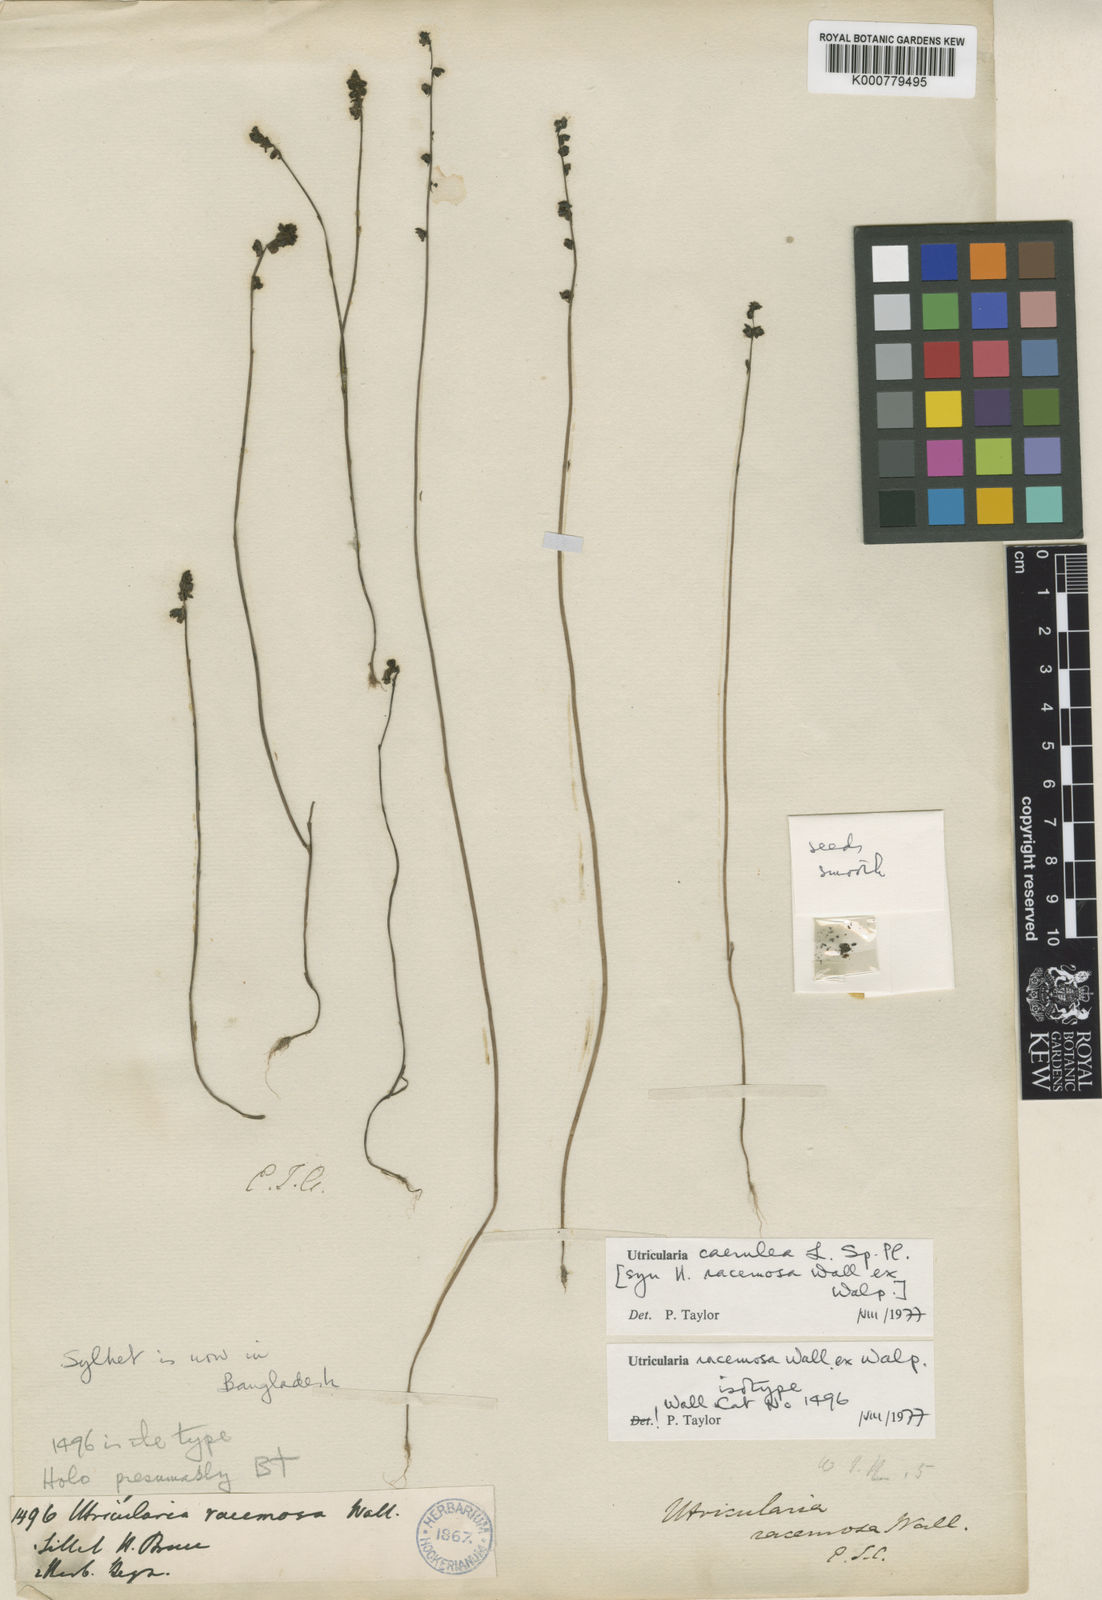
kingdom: Plantae
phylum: Tracheophyta
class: Magnoliopsida
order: Lamiales
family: Lentibulariaceae
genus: Utricularia
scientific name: Utricularia caerulea
